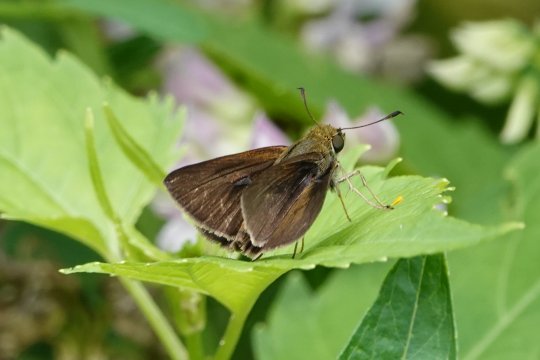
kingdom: Animalia
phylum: Arthropoda
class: Insecta
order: Lepidoptera
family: Hesperiidae
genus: Euphyes
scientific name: Euphyes vestris
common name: Dun Skipper
